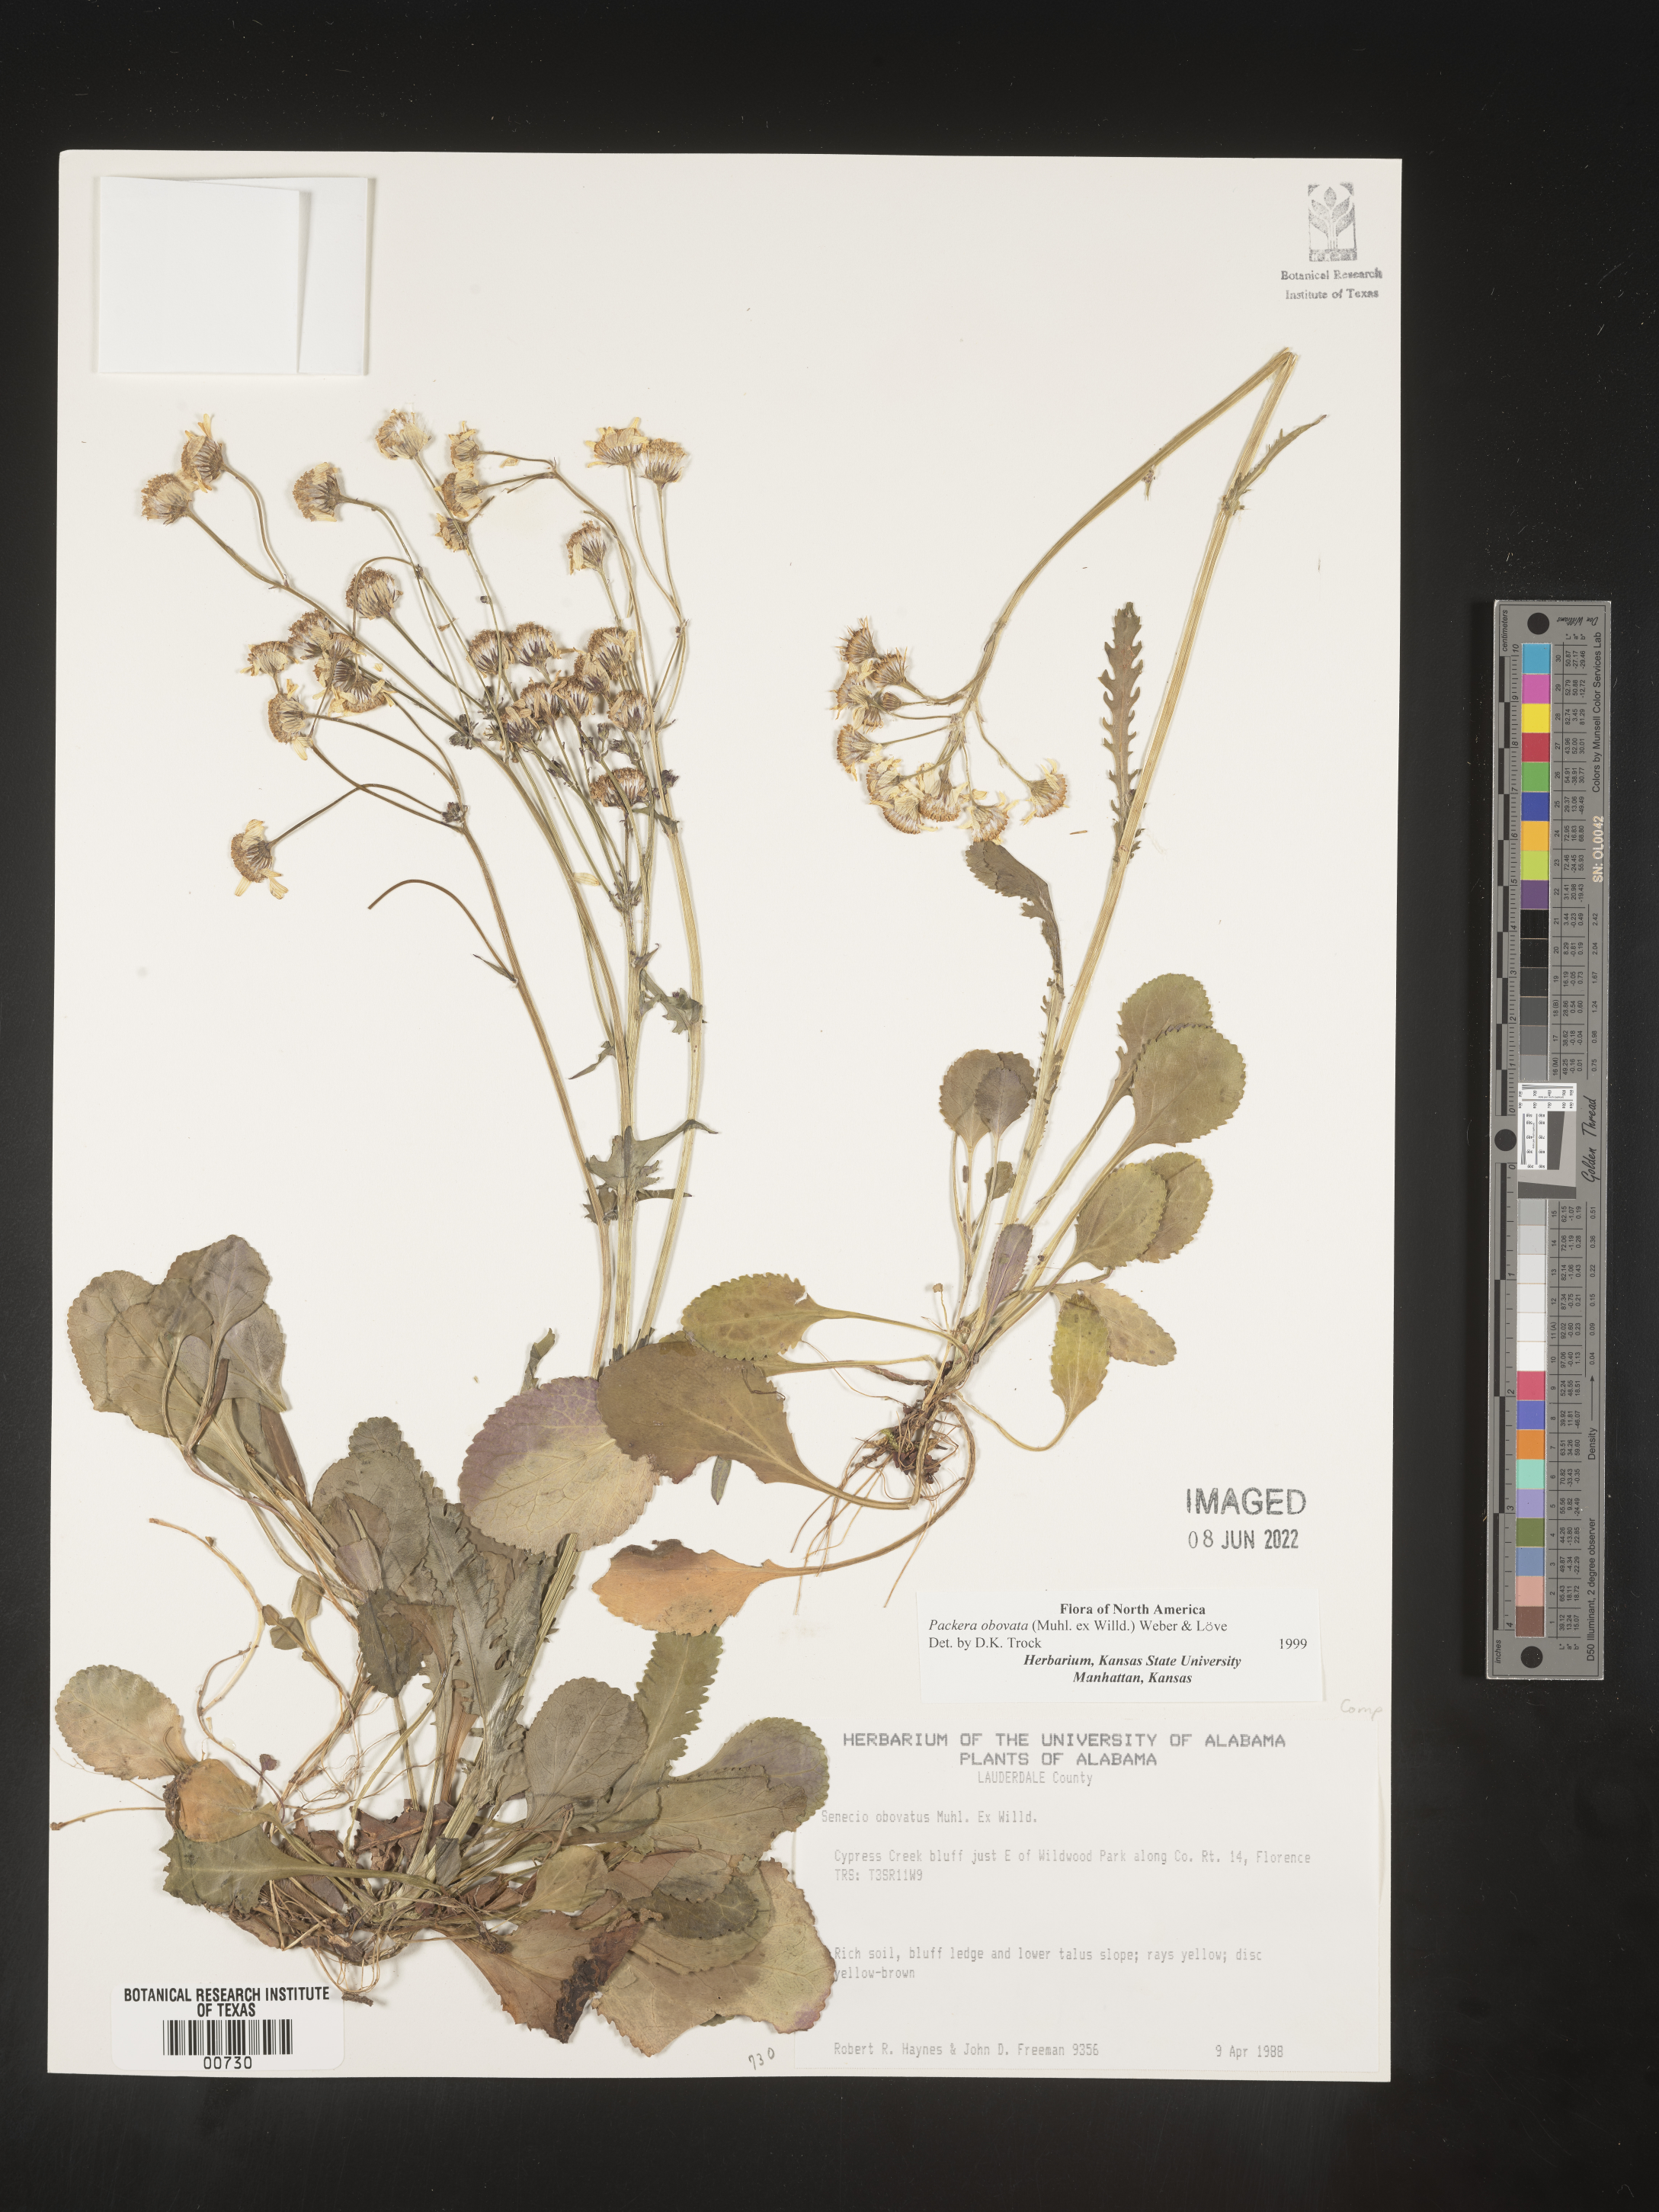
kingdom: Plantae
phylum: Tracheophyta
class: Magnoliopsida
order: Asterales
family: Asteraceae
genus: Packera
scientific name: Packera obovata
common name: Round-leaf ragwort
